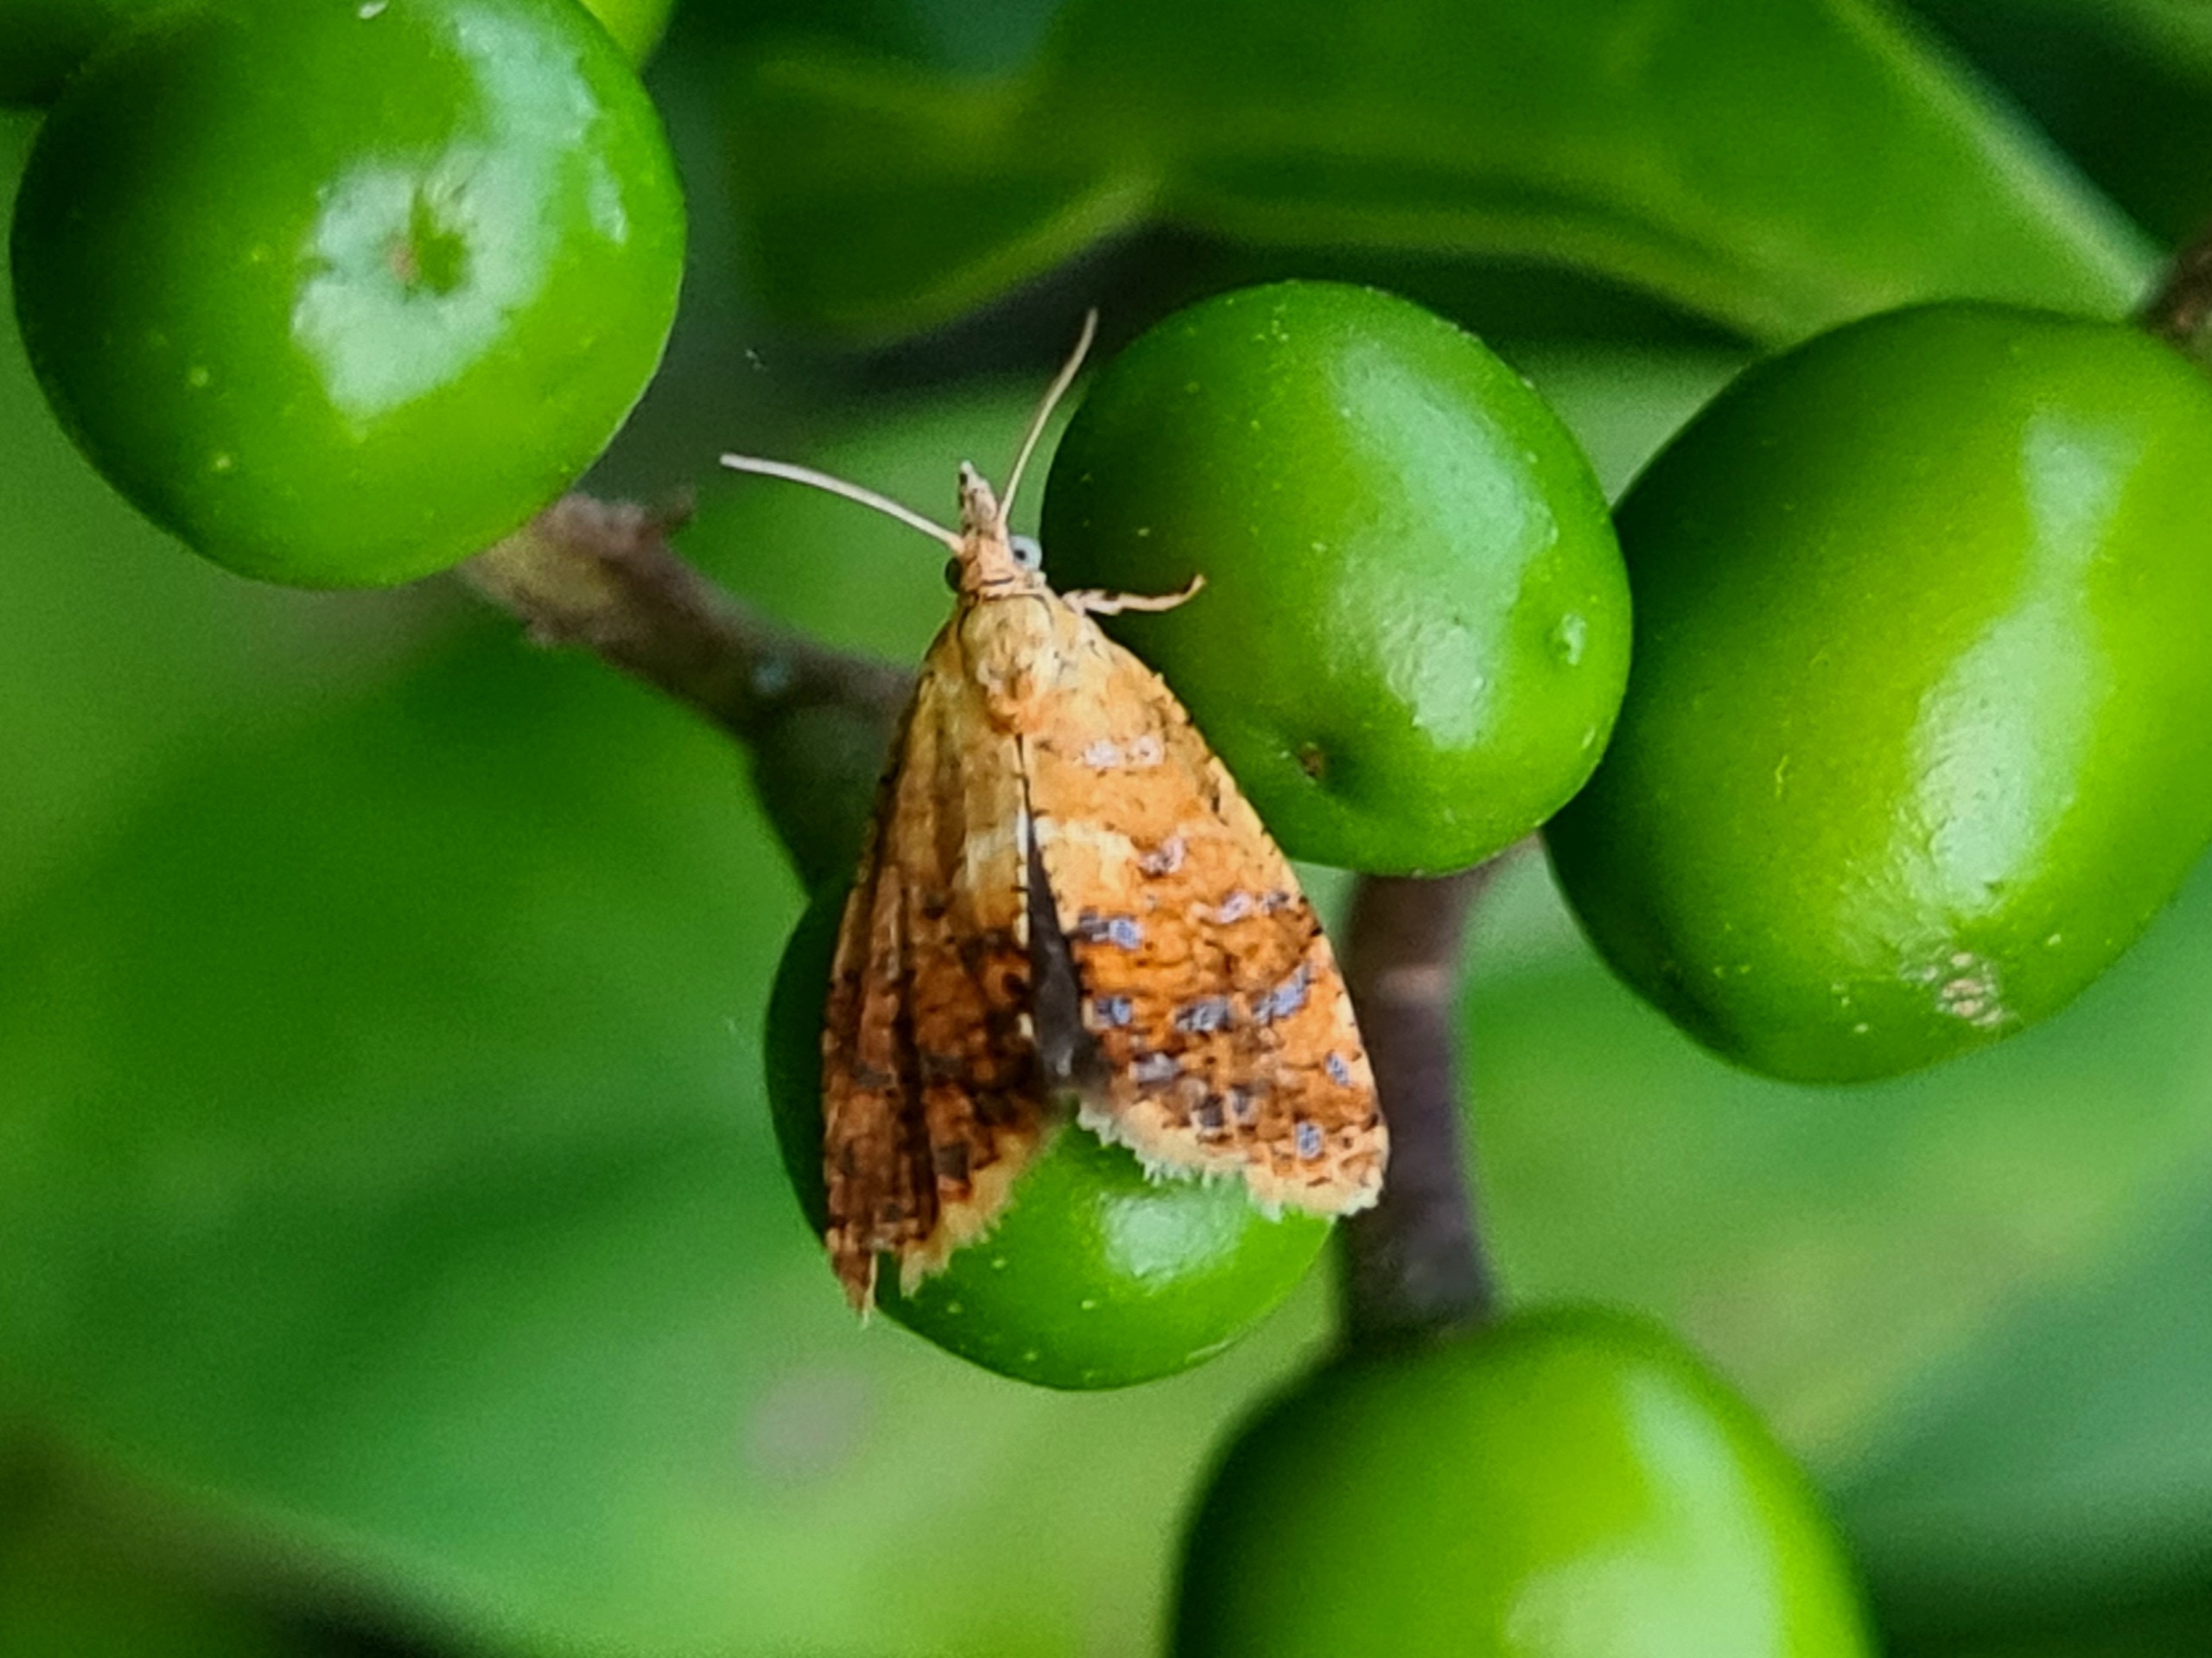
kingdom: Animalia
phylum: Arthropoda
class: Insecta
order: Lepidoptera
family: Tortricidae
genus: Pseudargyrotoza
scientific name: Pseudargyrotoza conwagana
